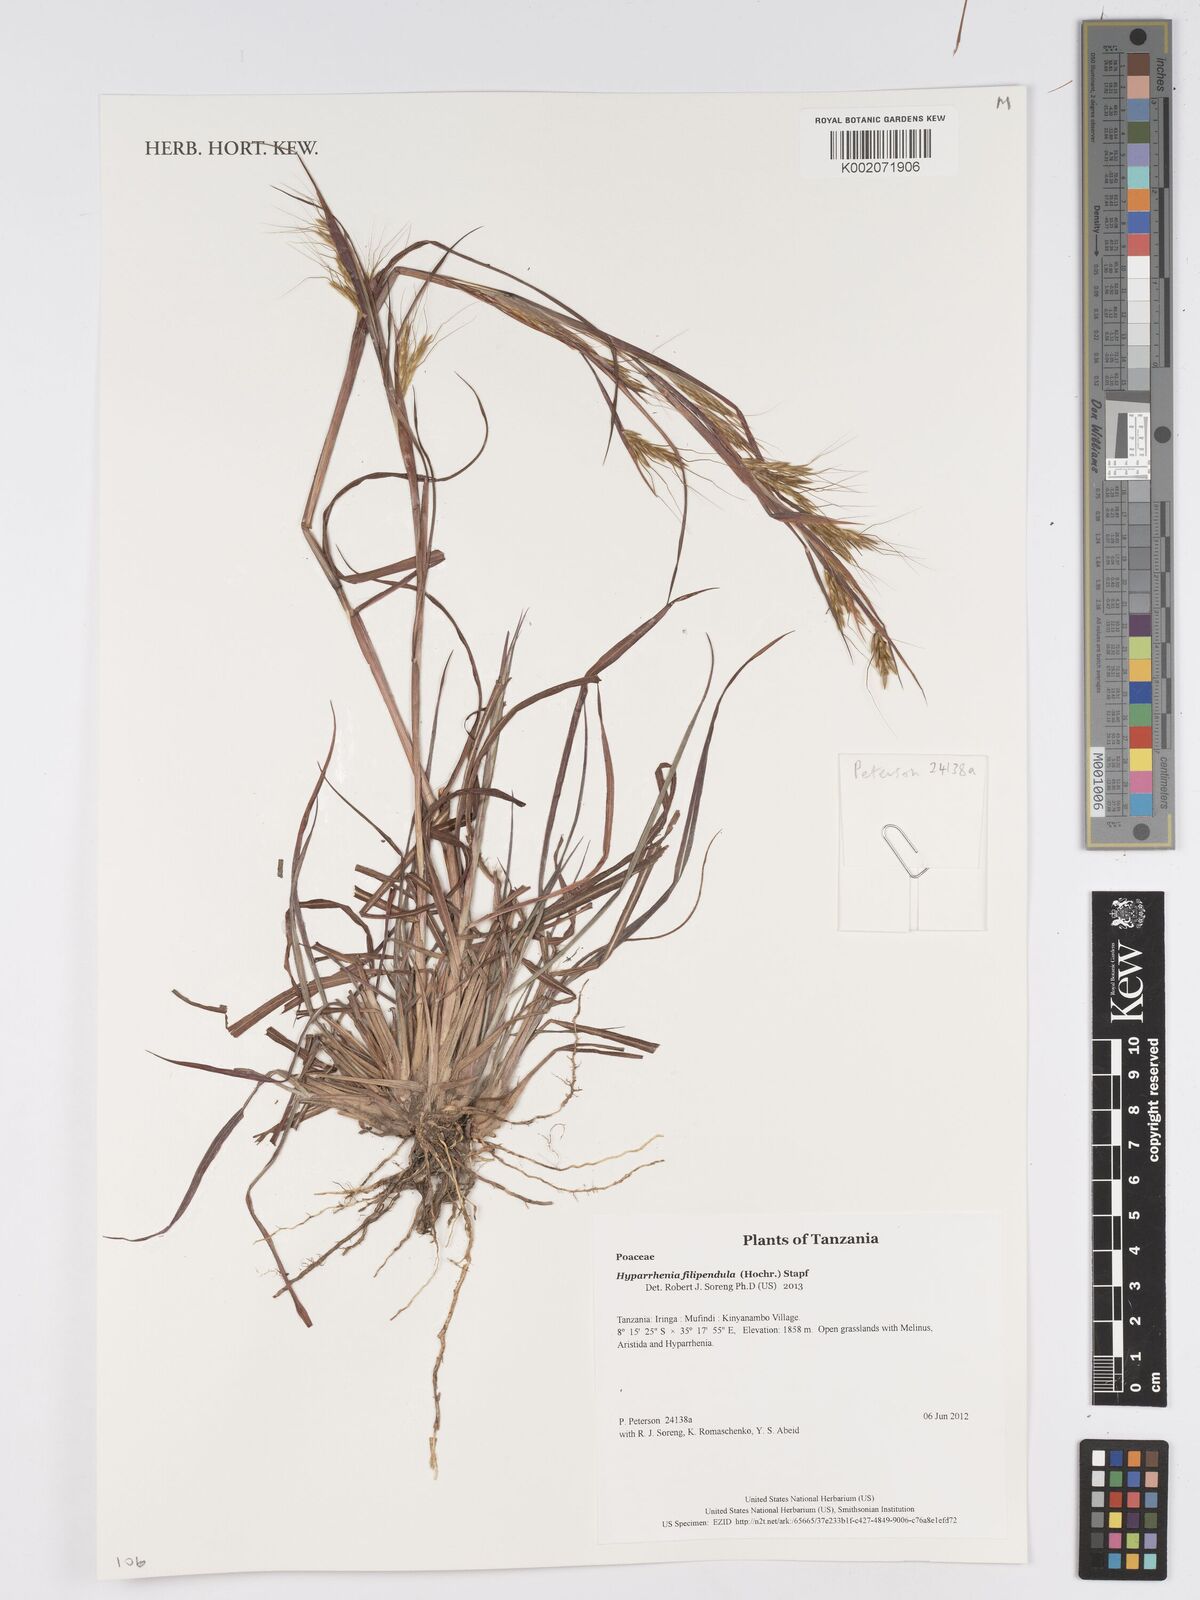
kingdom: Plantae
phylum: Tracheophyta
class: Liliopsida
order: Poales
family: Poaceae
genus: Hyparrhenia
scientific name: Hyparrhenia filipendula
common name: Tambookie grass
